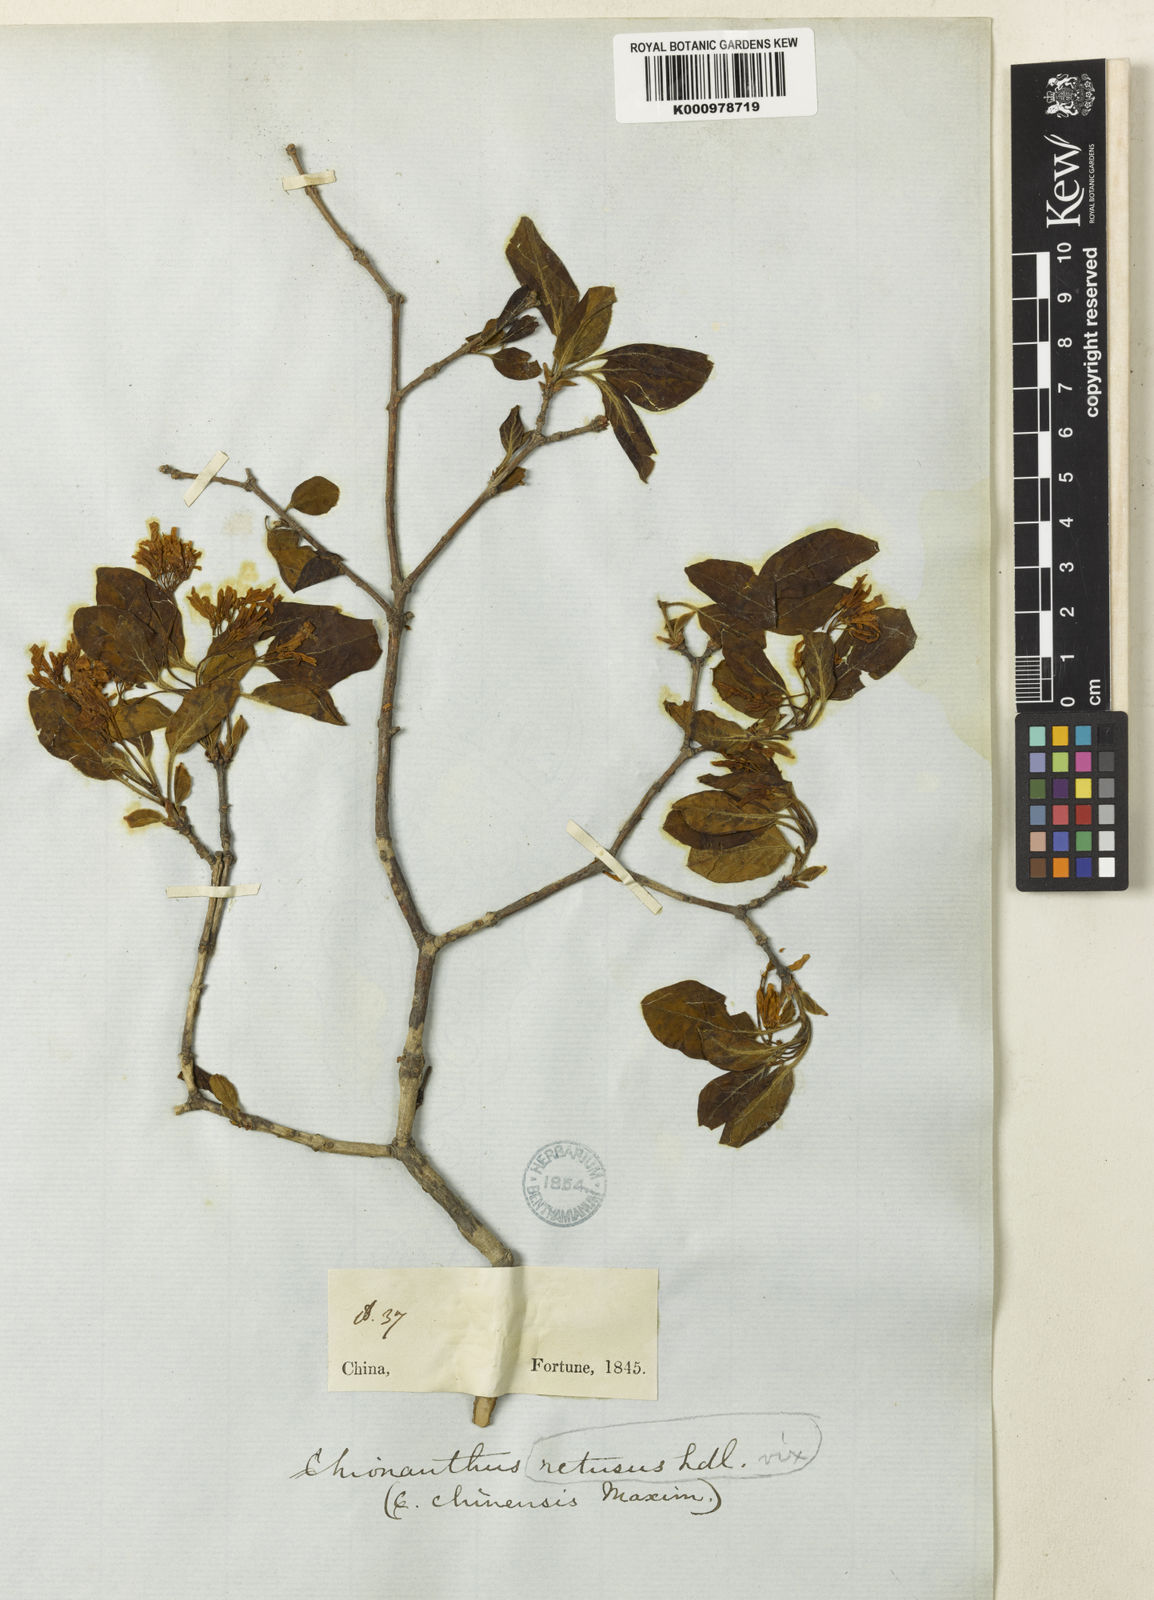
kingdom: Plantae
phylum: Tracheophyta
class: Magnoliopsida
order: Lamiales
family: Oleaceae
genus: Chionanthus
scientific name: Chionanthus retusus
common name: Chinese fringetree
